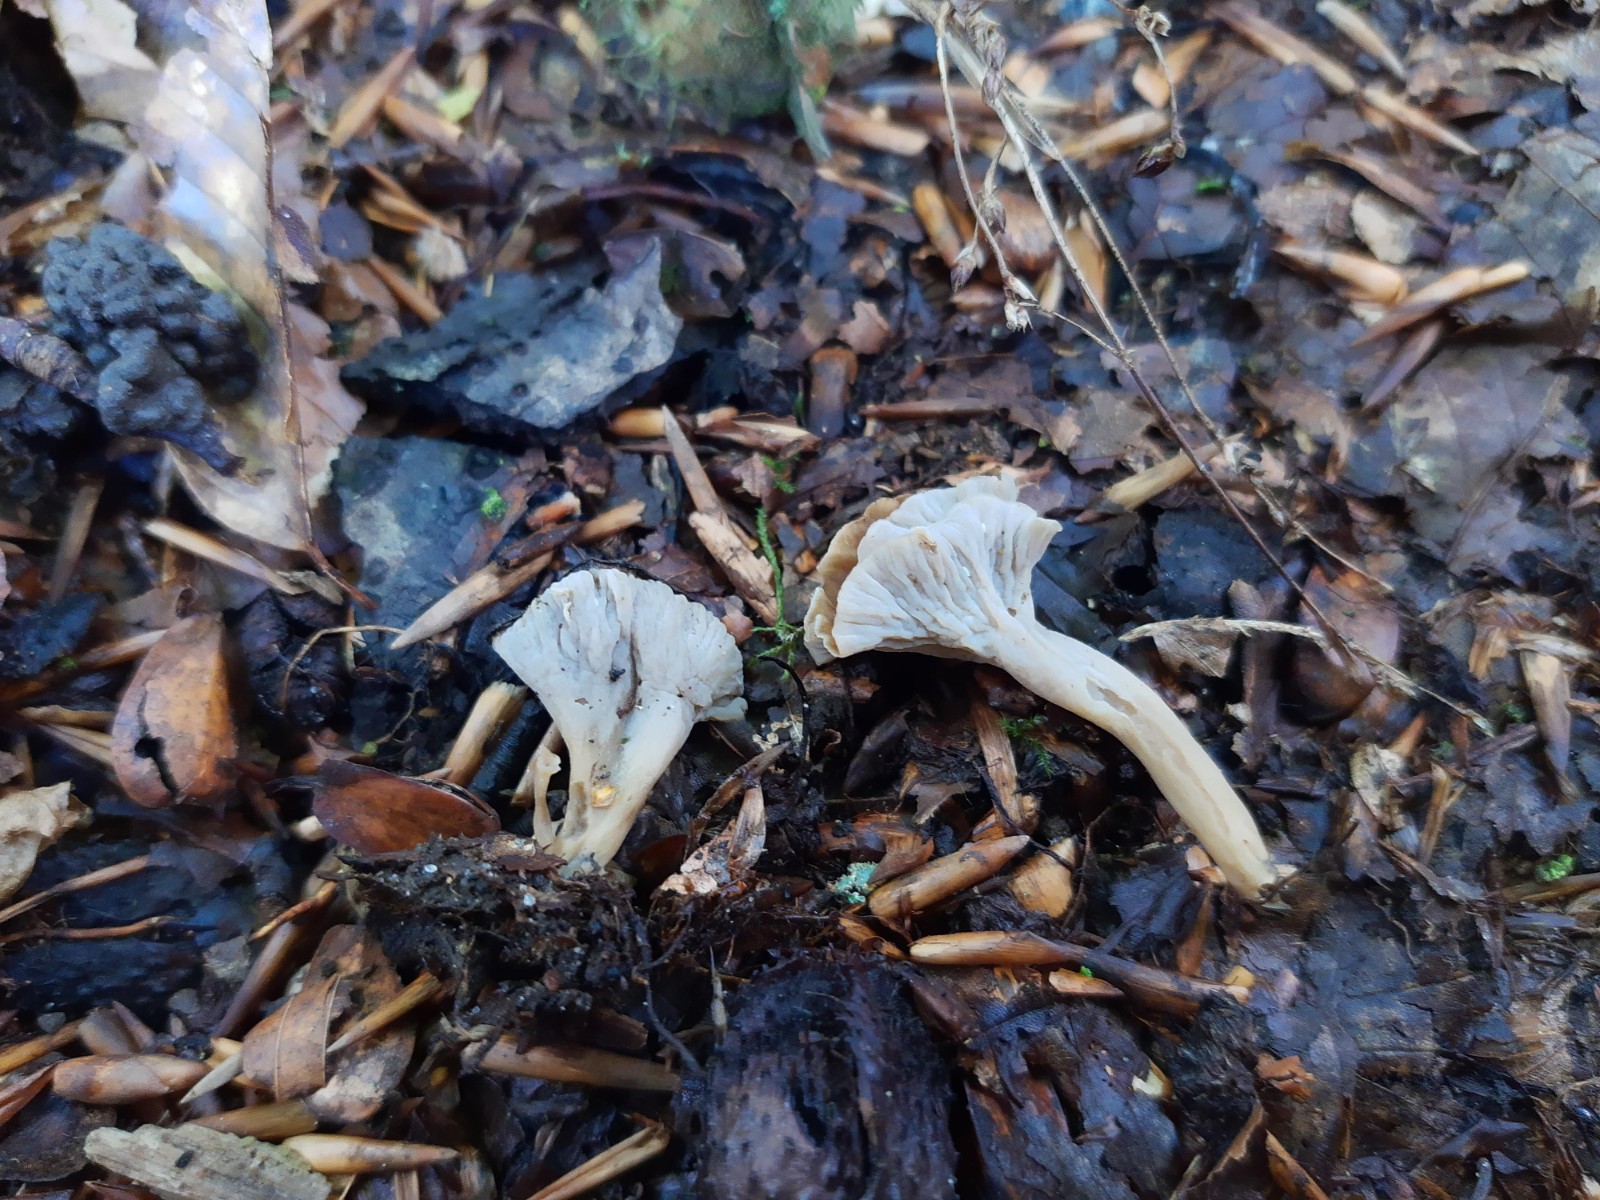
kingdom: Fungi
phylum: Basidiomycota
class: Agaricomycetes
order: Cantharellales
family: Hydnaceae
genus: Craterellus
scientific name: Craterellus undulatus
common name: liden kantarel
